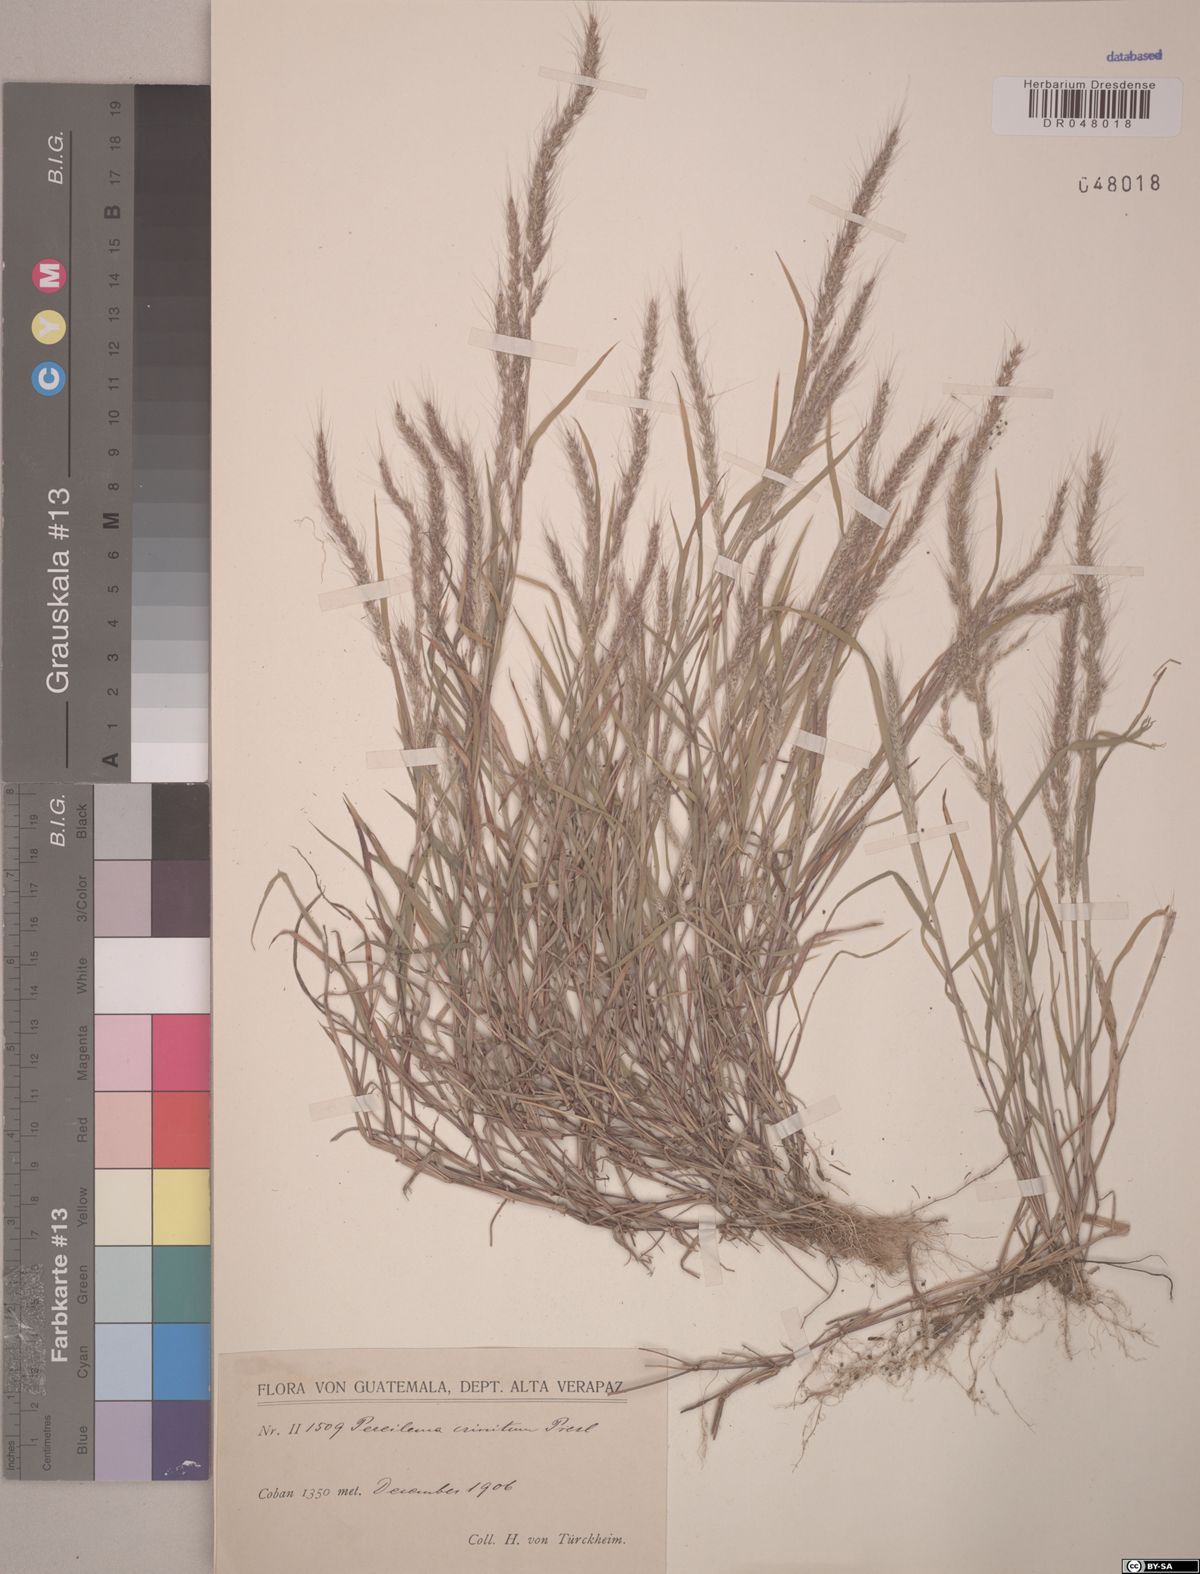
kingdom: Plantae
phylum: Tracheophyta
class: Liliopsida
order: Poales
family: Poaceae
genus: Muhlenbergia
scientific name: Muhlenbergia pereilema
